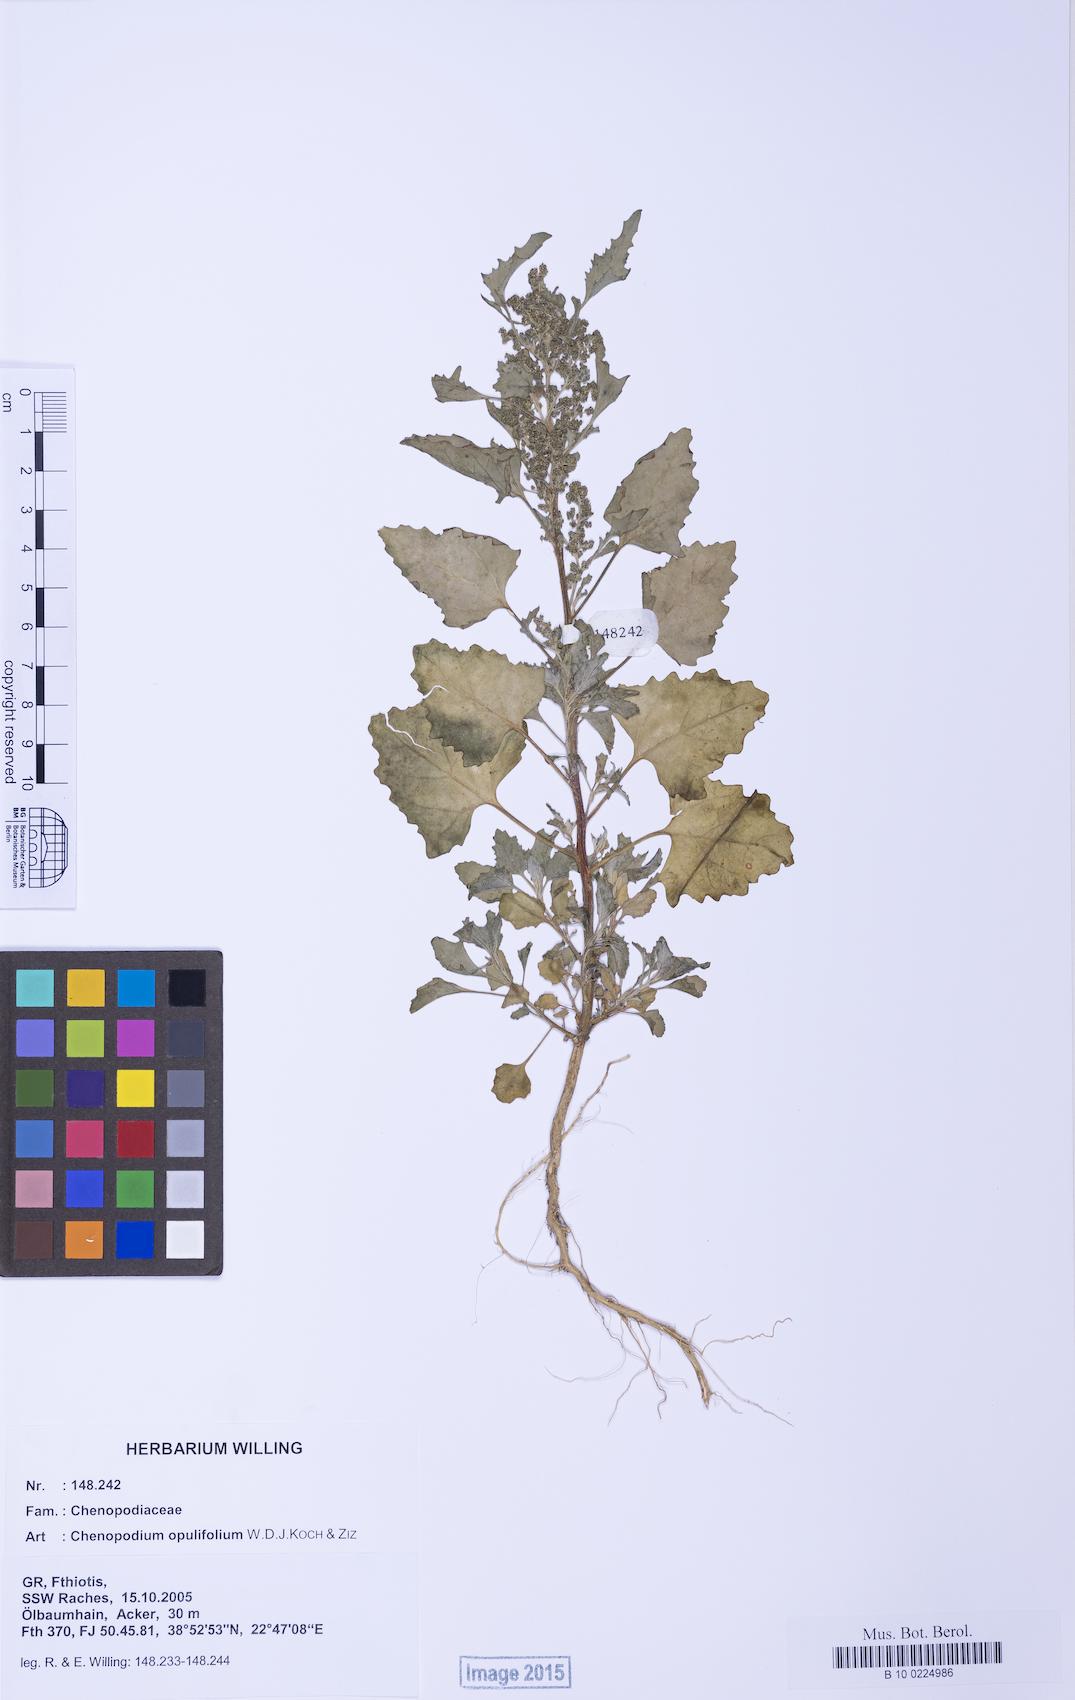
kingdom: Plantae
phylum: Tracheophyta
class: Magnoliopsida
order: Caryophyllales
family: Amaranthaceae
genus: Chenopodium
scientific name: Chenopodium album
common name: Fat-hen
